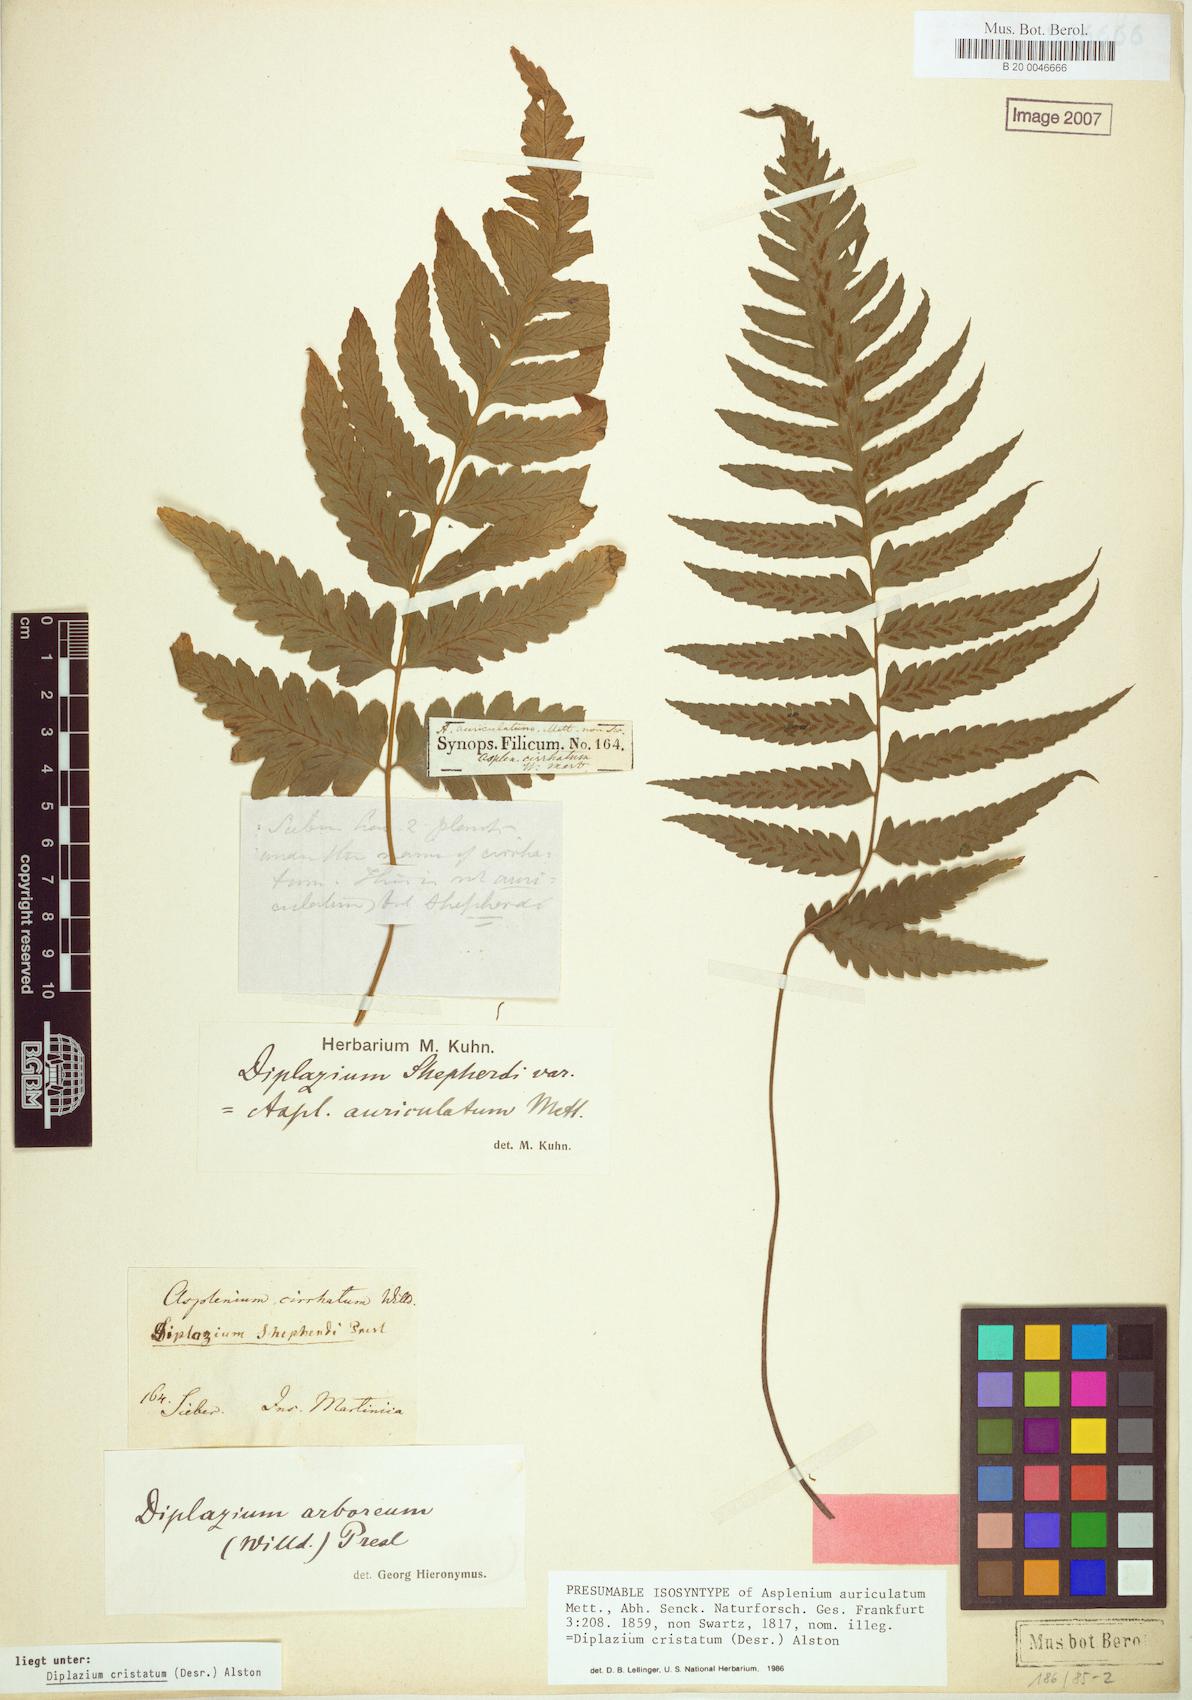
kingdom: Plantae
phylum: Tracheophyta
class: Polypodiopsida
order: Polypodiales
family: Athyriaceae
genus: Diplazium
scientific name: Diplazium cristatum
